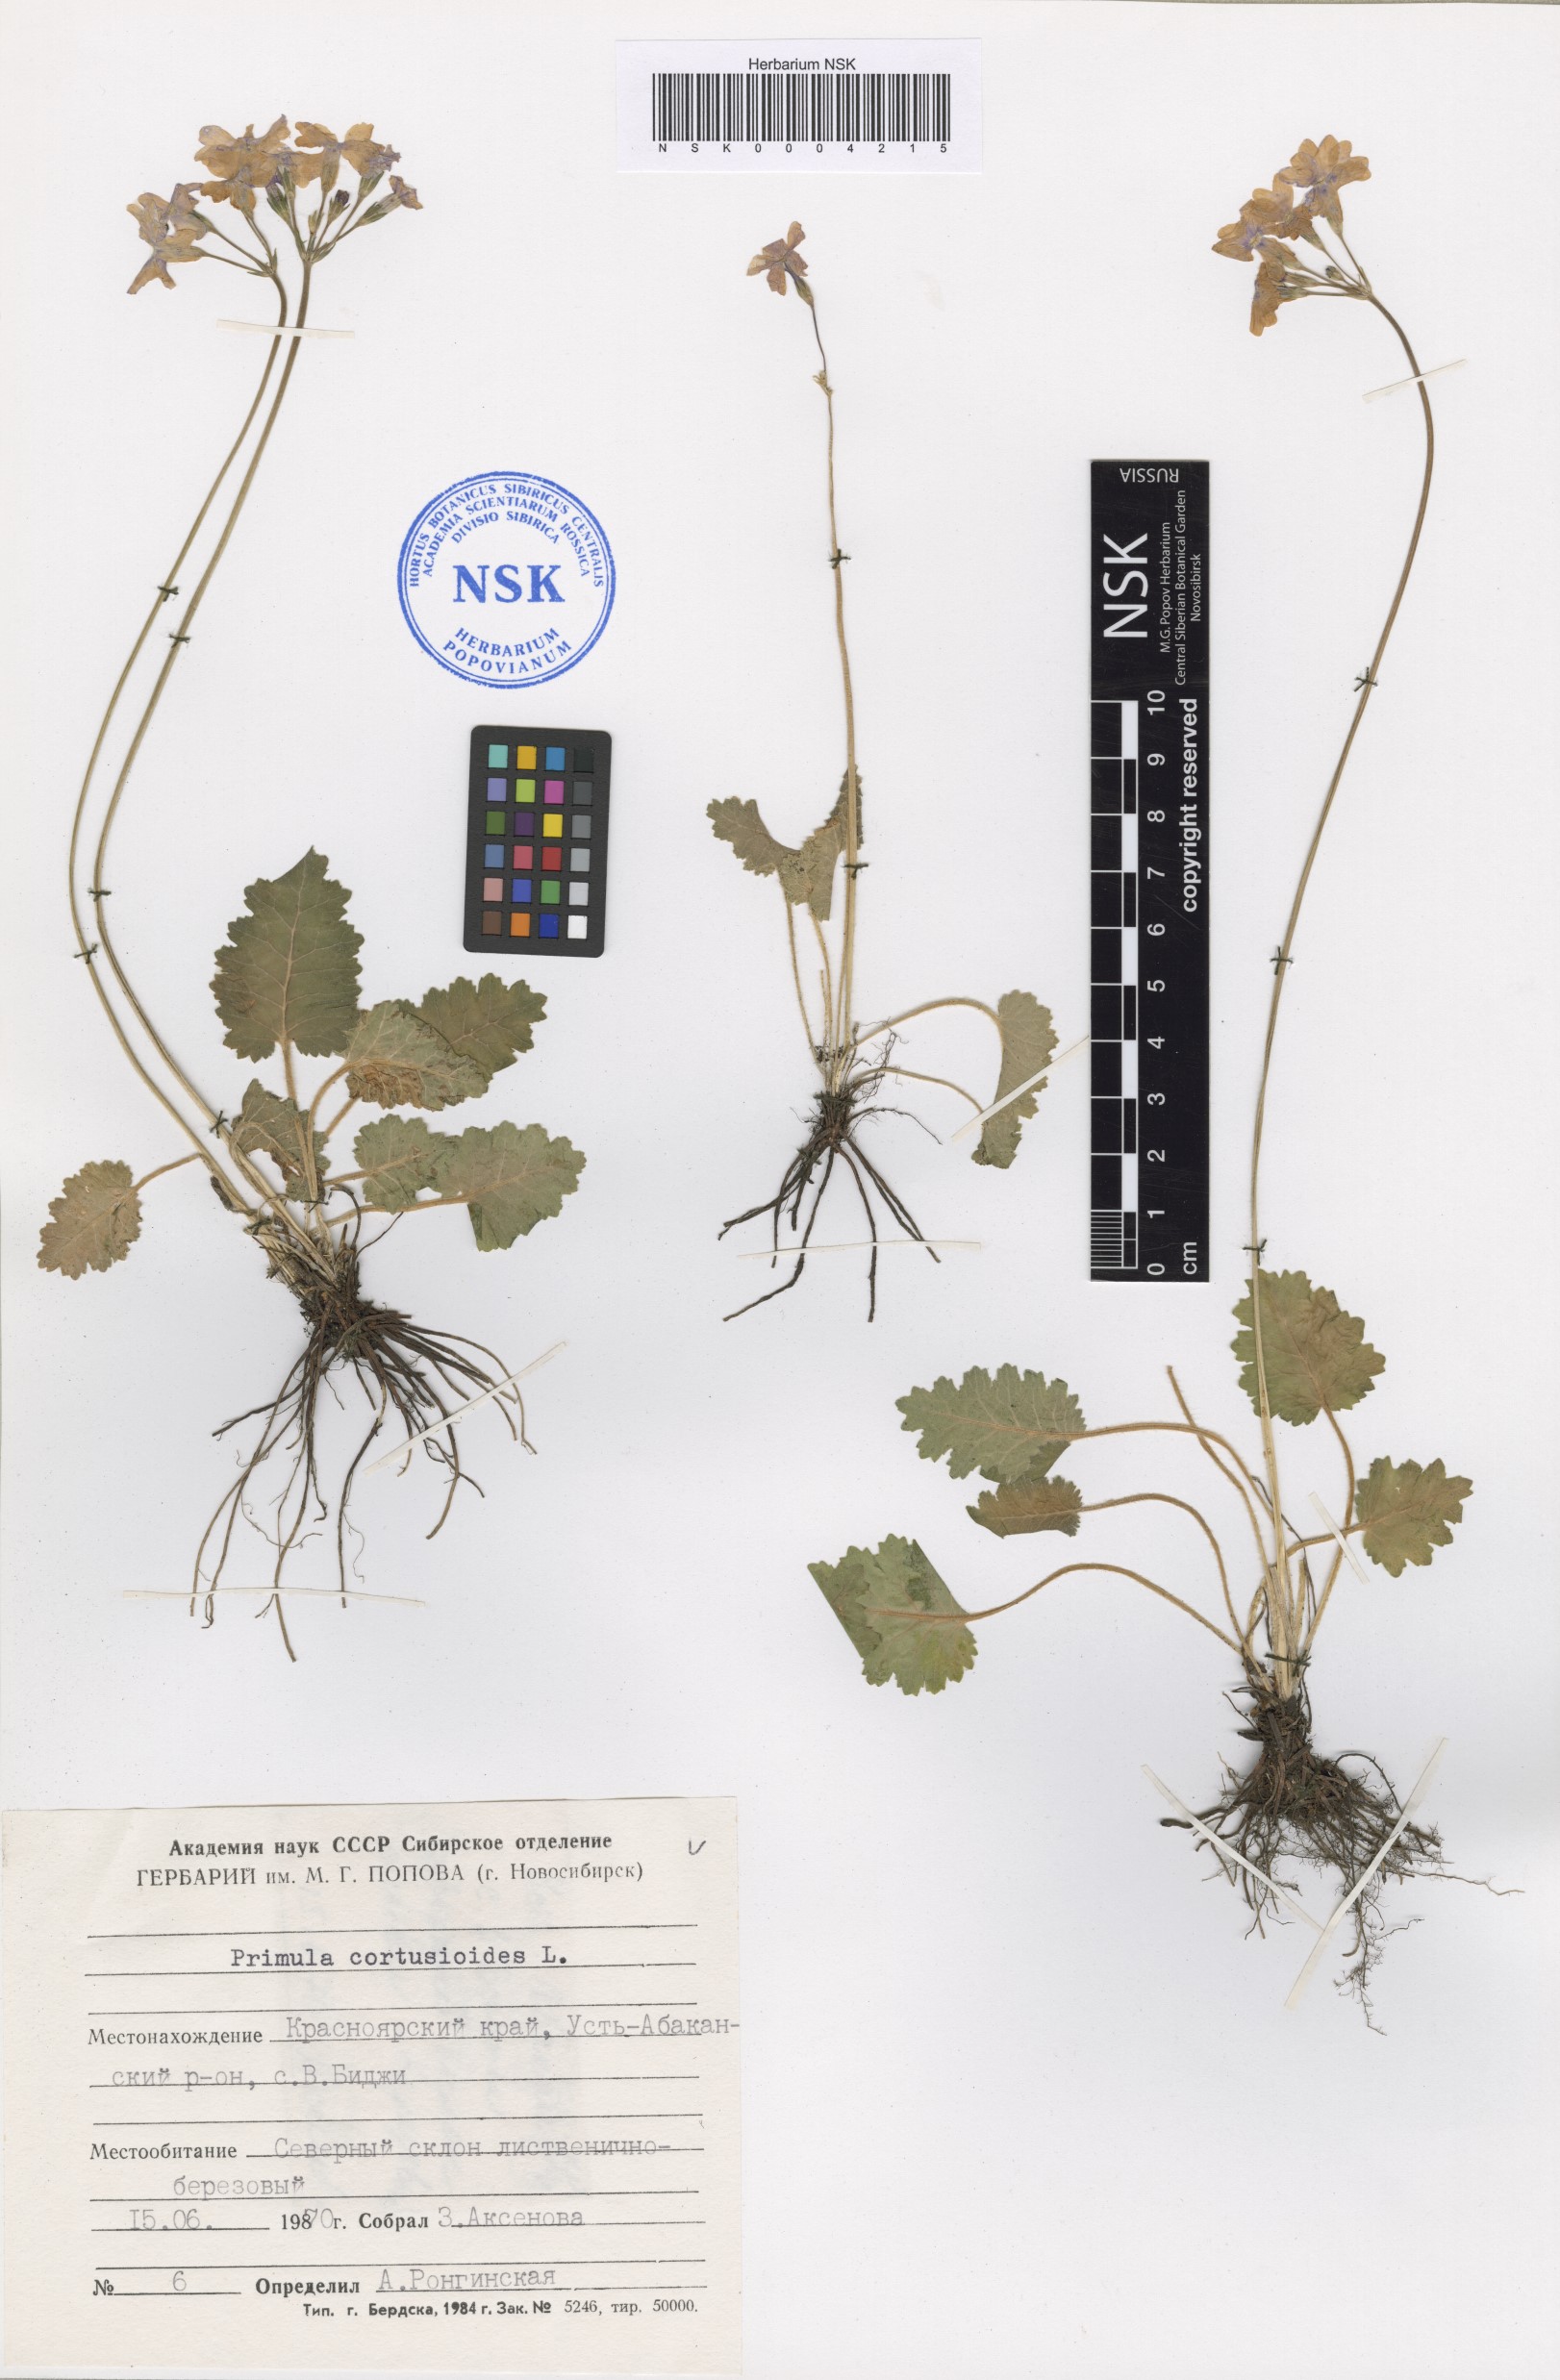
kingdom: Plantae
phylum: Tracheophyta
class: Magnoliopsida
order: Ericales
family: Primulaceae
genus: Primula
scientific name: Primula cortusoides
